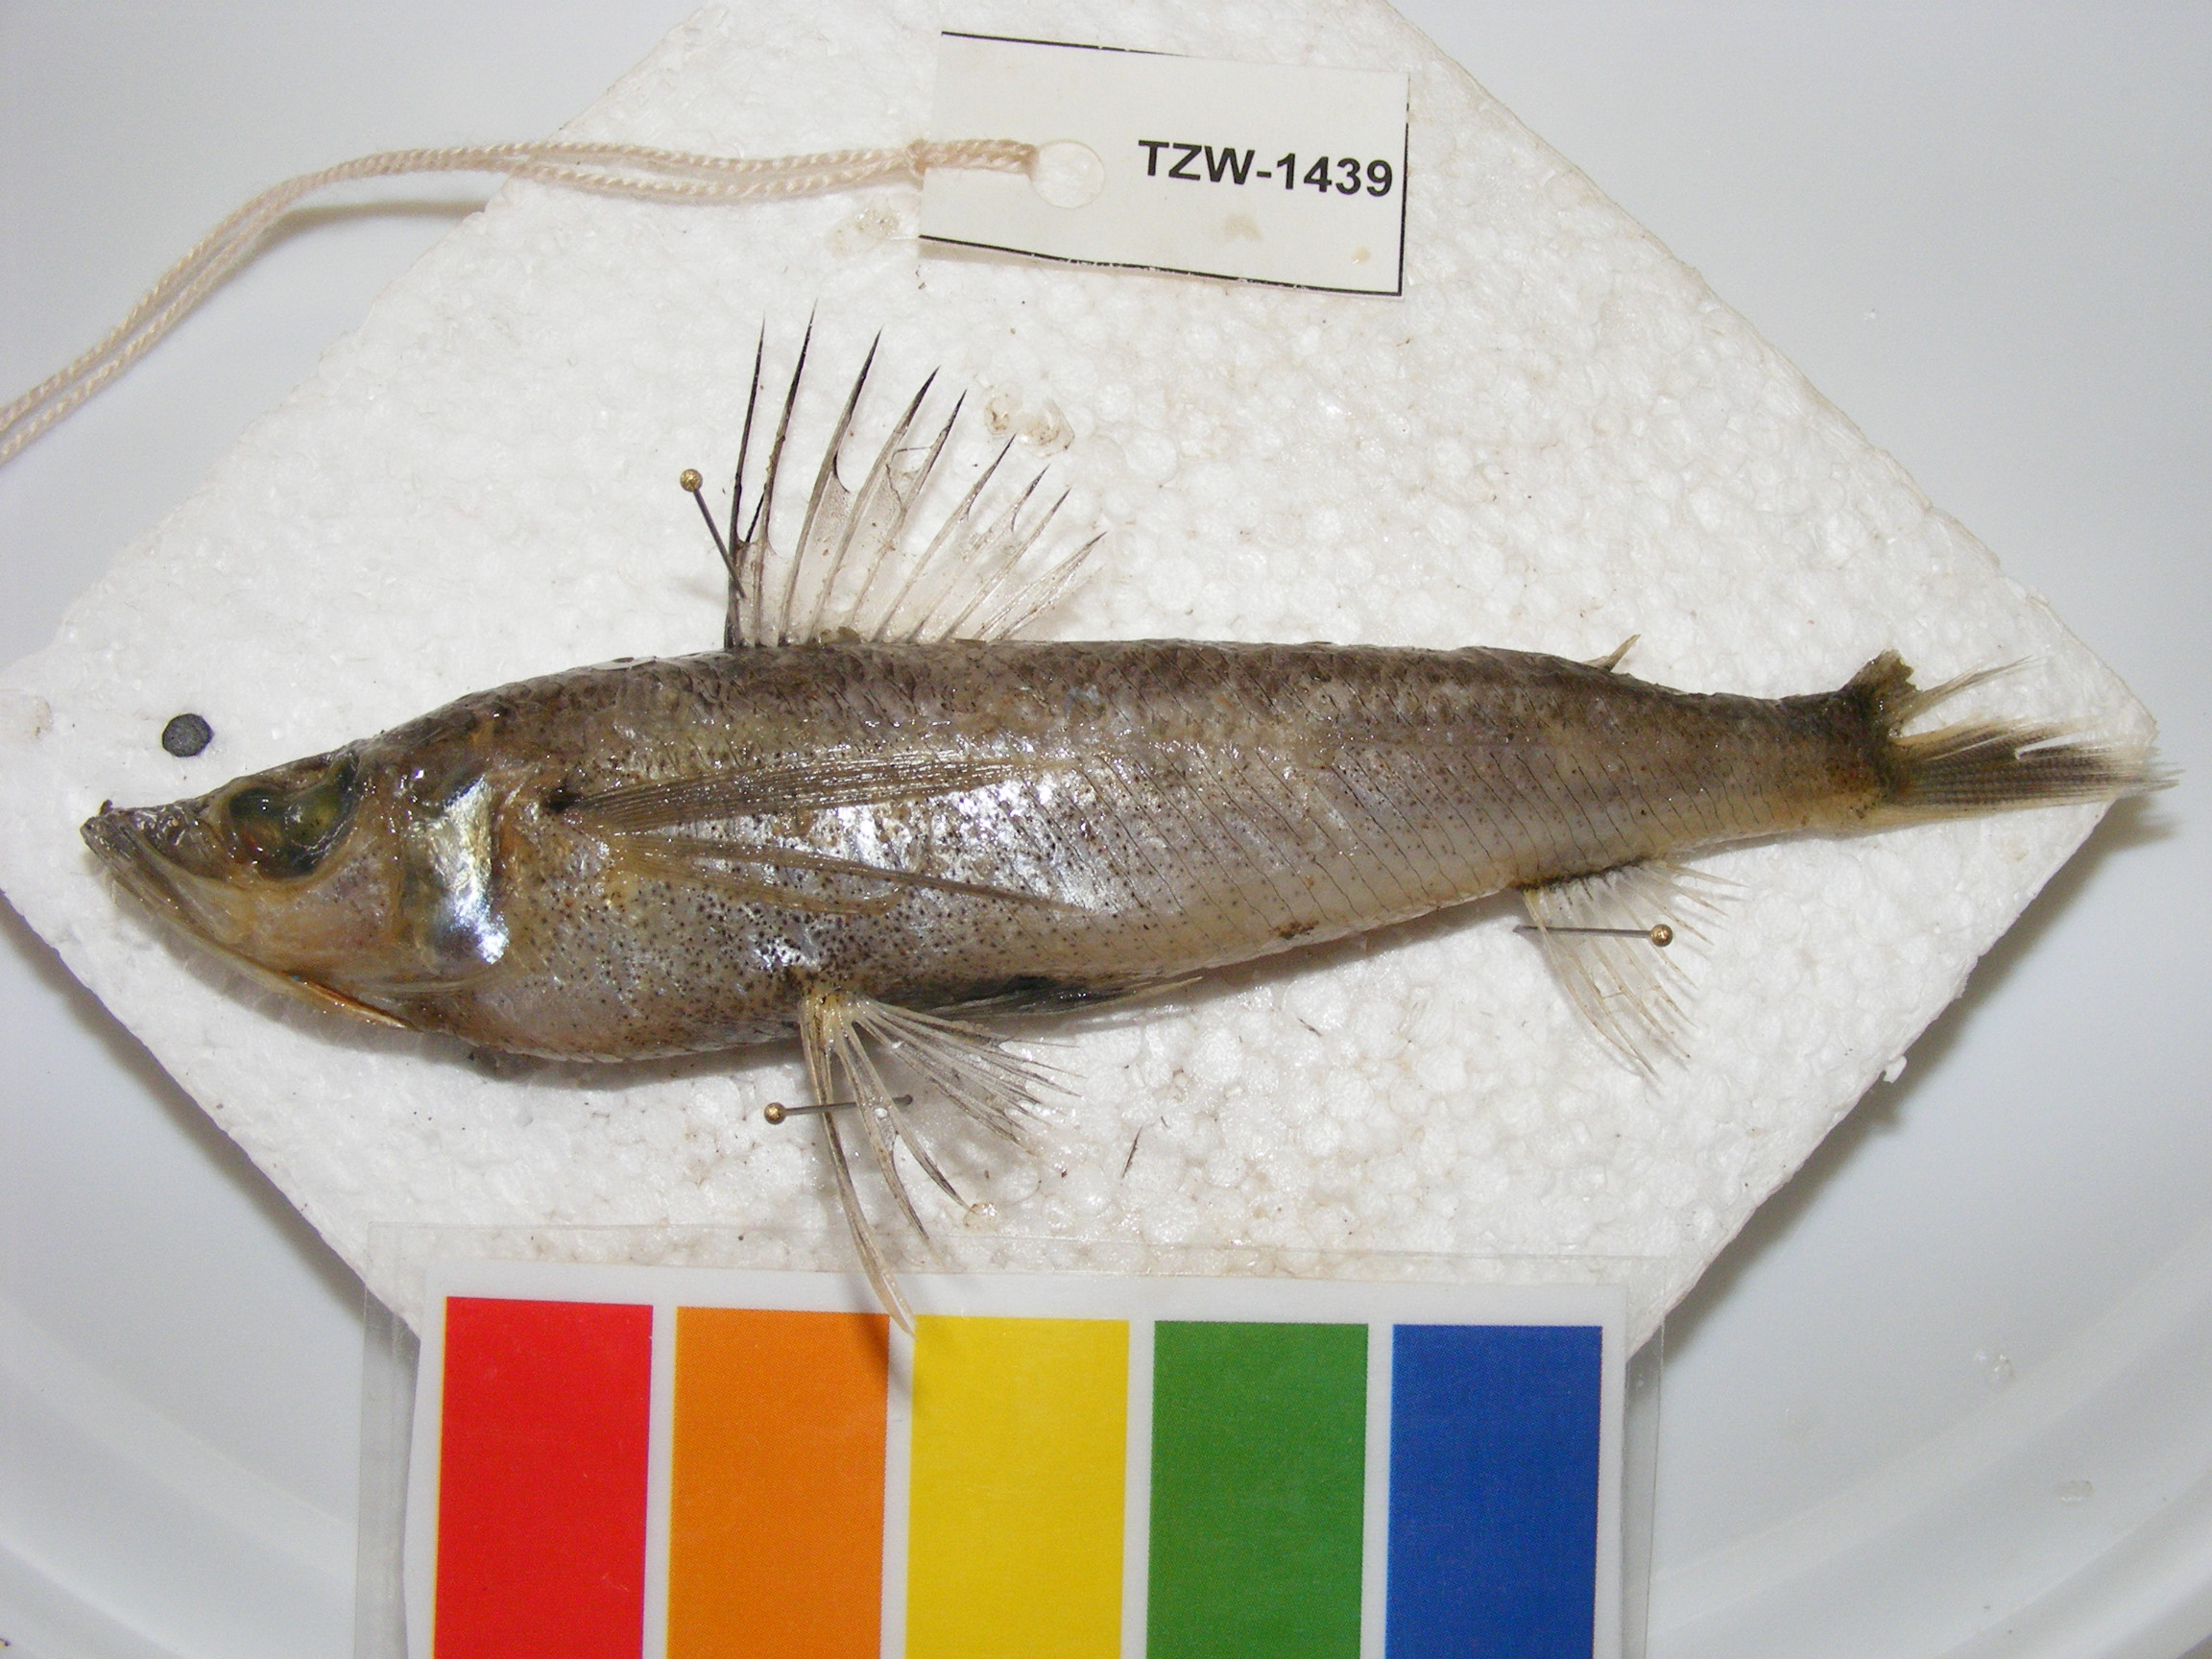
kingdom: Animalia
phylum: Chordata
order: Aulopiformes
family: Chlorophthalmidae
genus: Chlorophthalmus
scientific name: Chlorophthalmus punctatus
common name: Spotted greeneye
